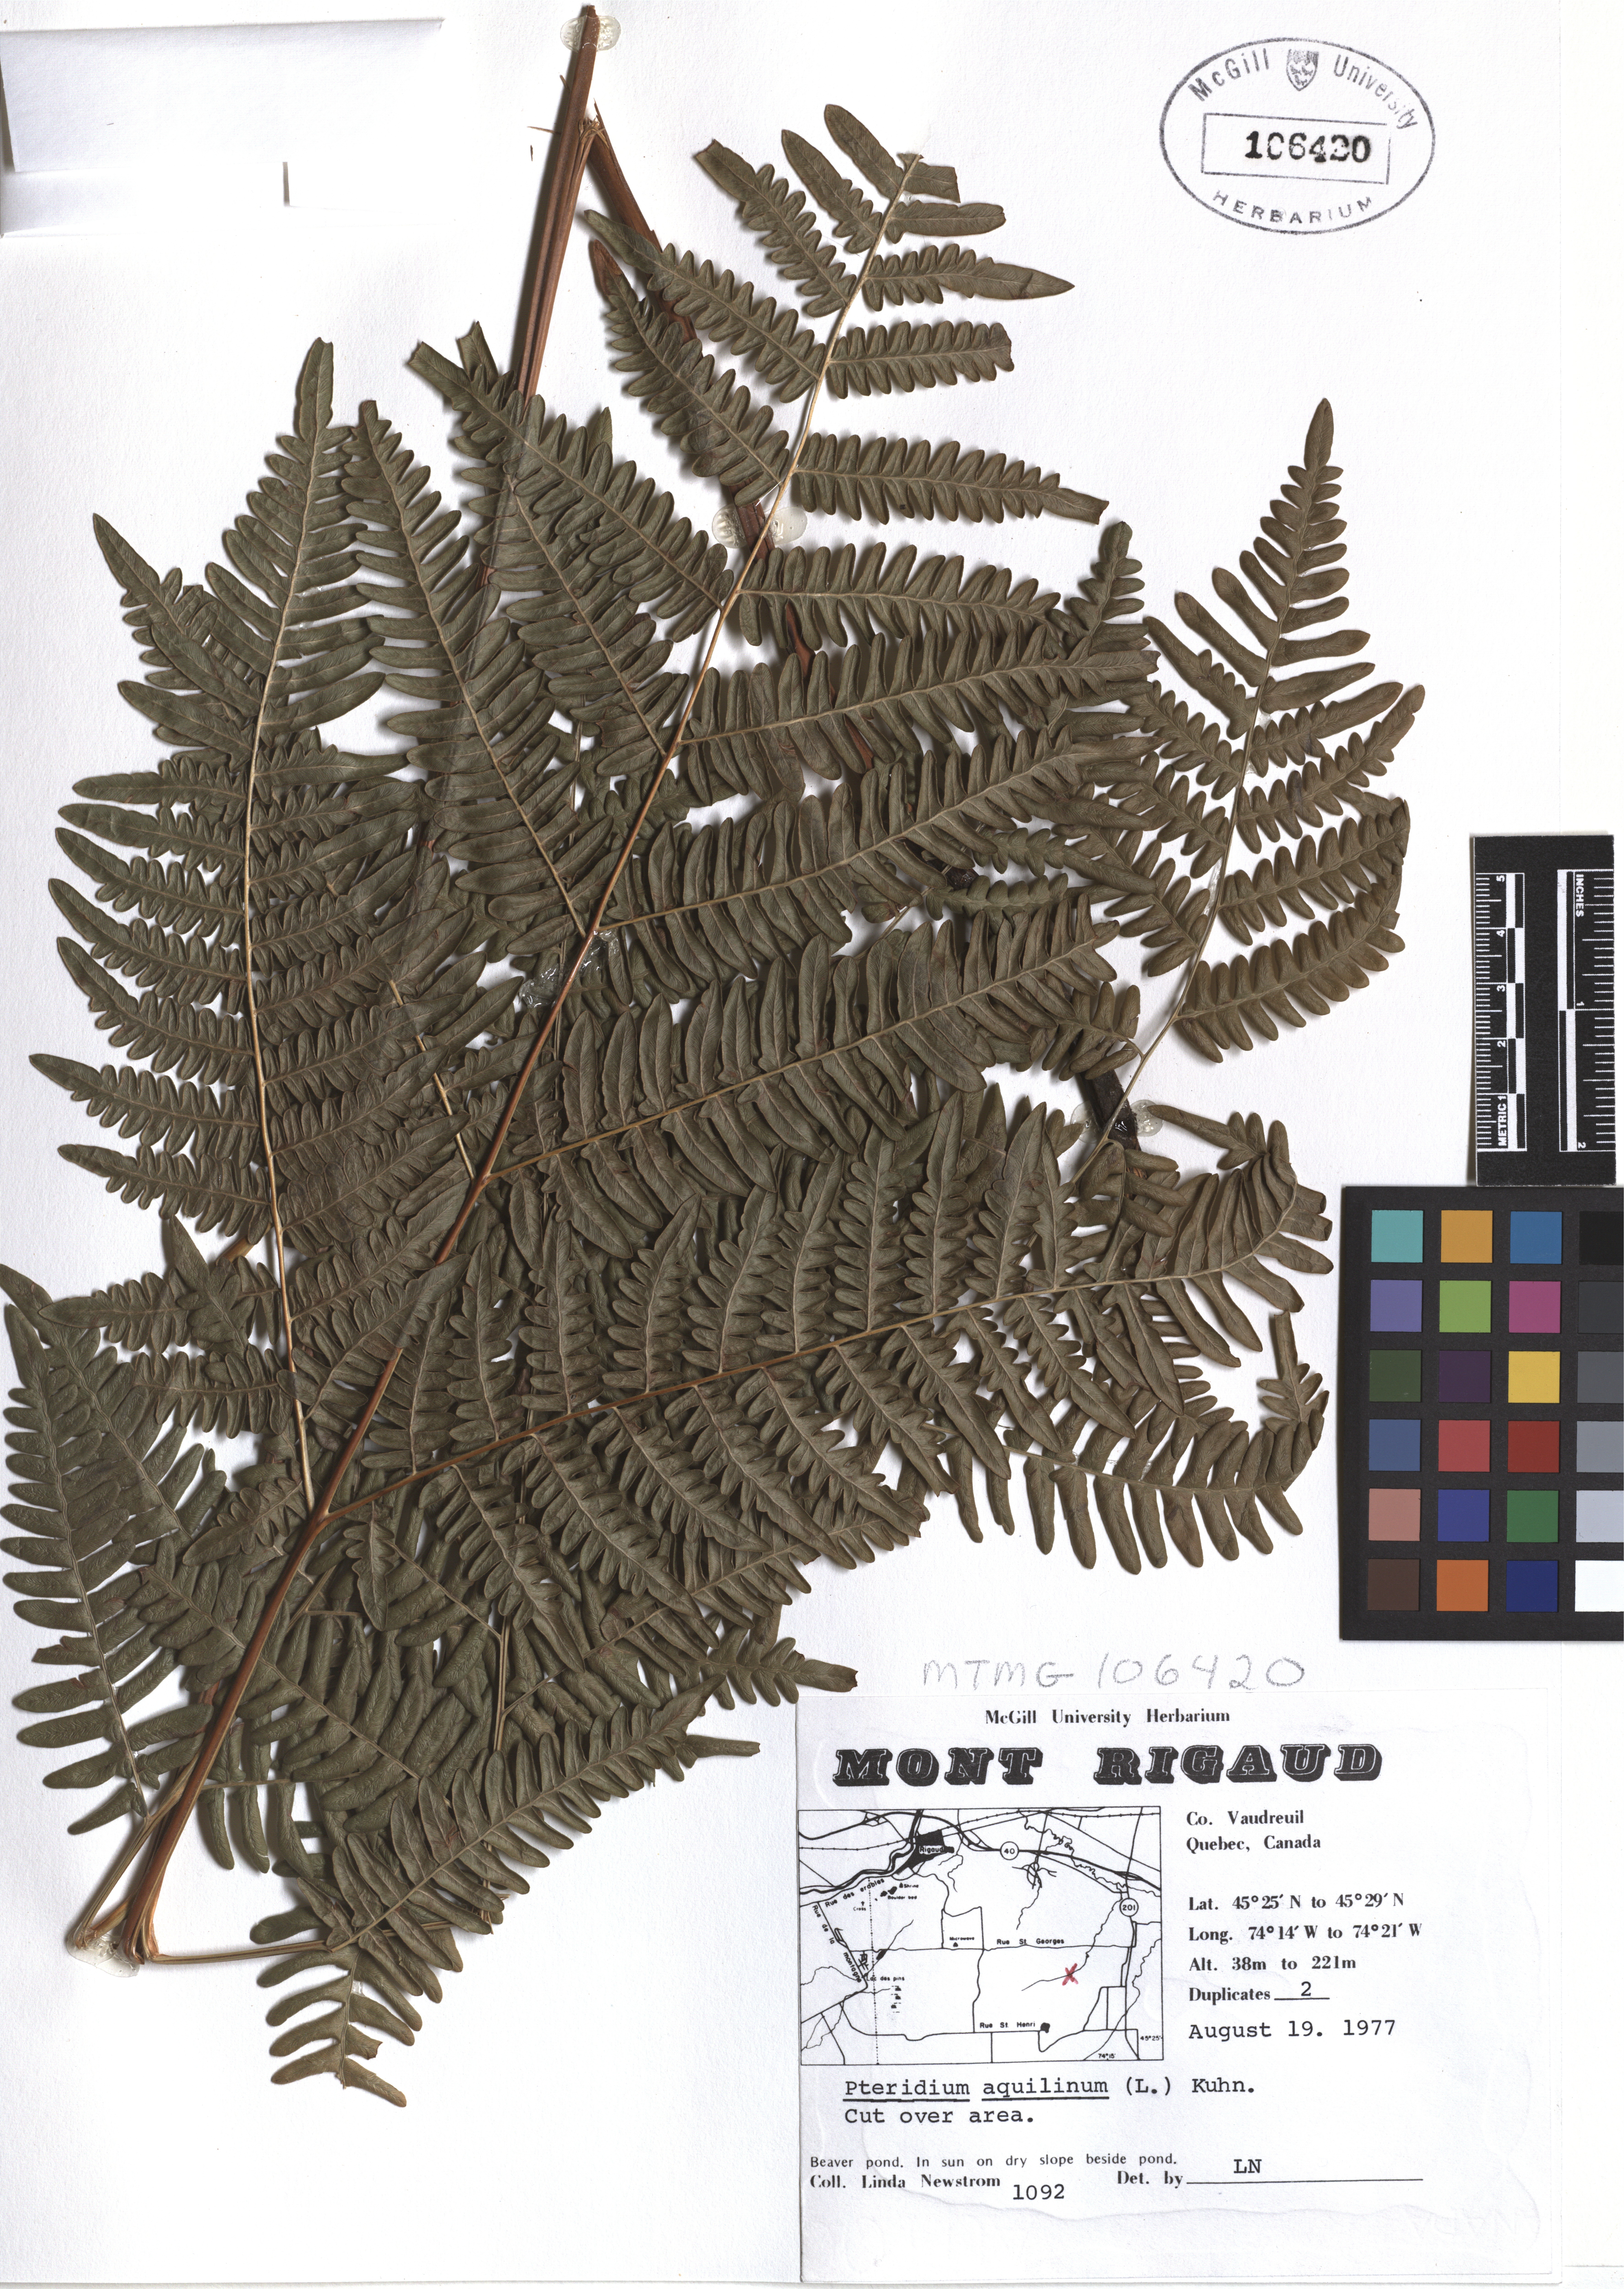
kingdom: Plantae
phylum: Tracheophyta
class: Polypodiopsida
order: Polypodiales
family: Dennstaedtiaceae
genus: Pteridium
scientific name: Pteridium aquilinum
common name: Bracken
